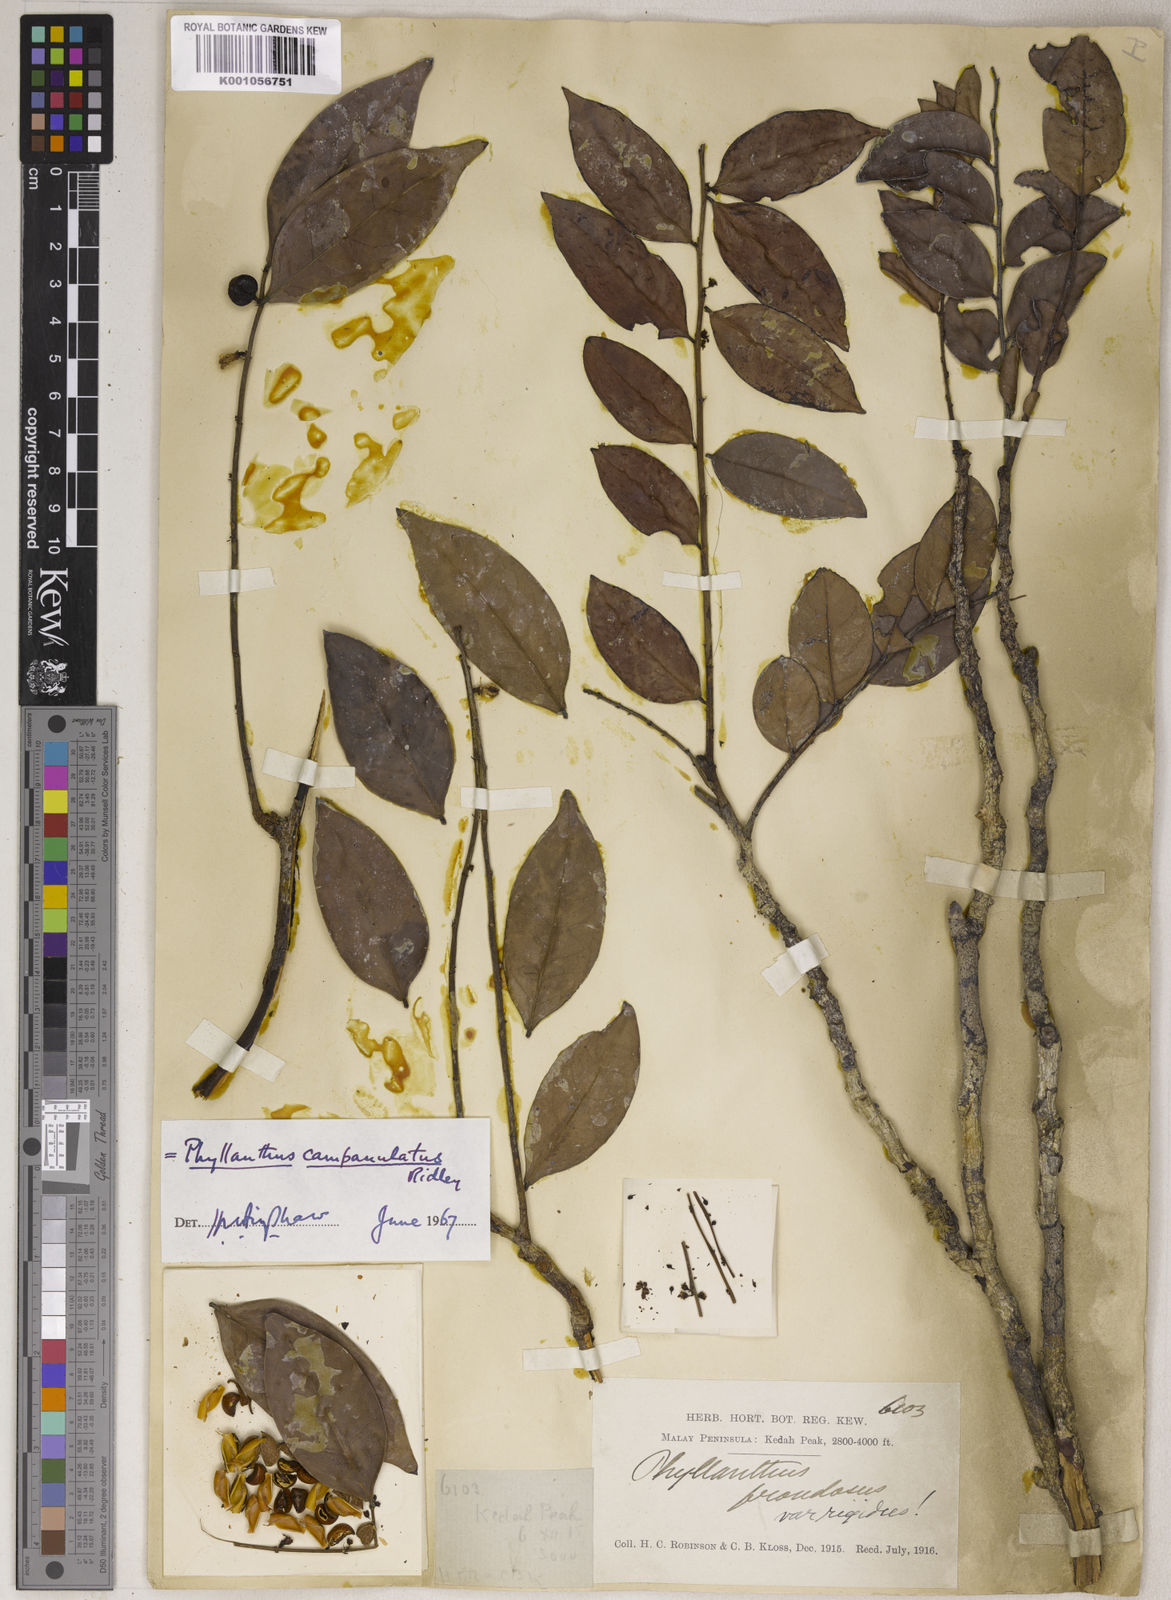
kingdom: Plantae
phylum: Tracheophyta
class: Magnoliopsida
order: Malpighiales
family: Phyllanthaceae
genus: Phyllanthus
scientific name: Phyllanthus
